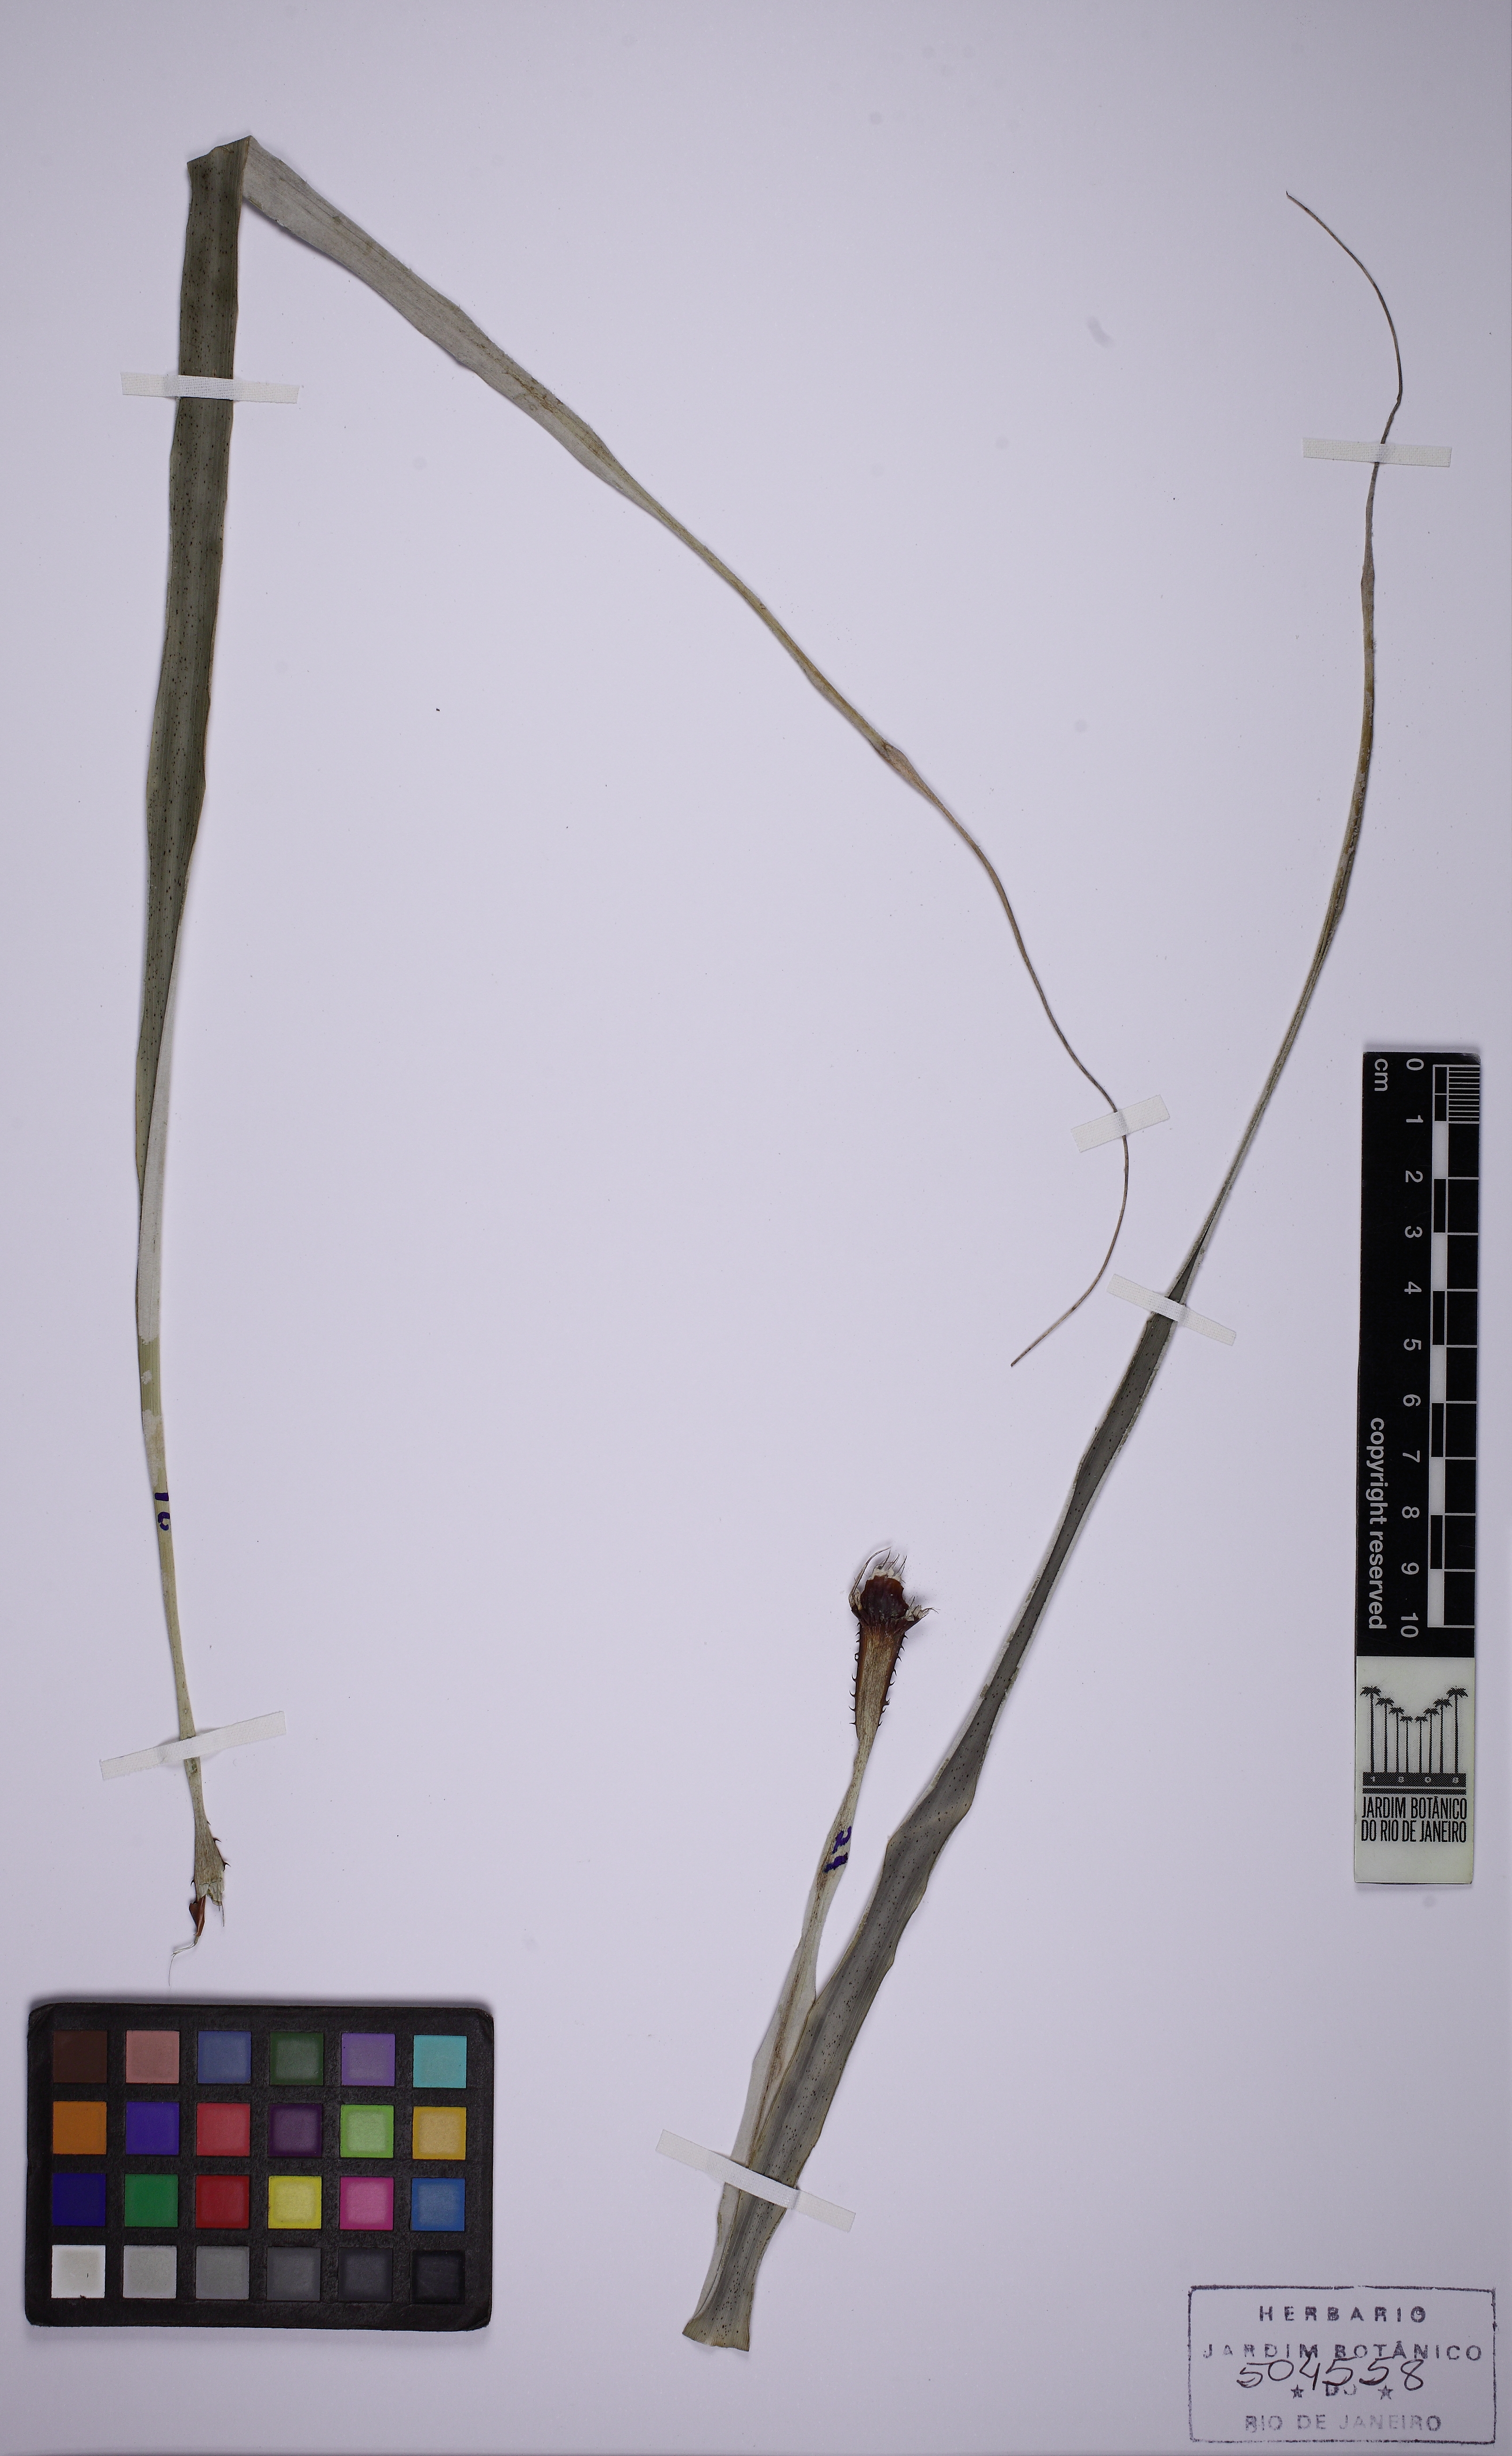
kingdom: Plantae
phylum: Tracheophyta
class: Liliopsida
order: Poales
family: Bromeliaceae
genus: Pitcairnia
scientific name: Pitcairnia limae
